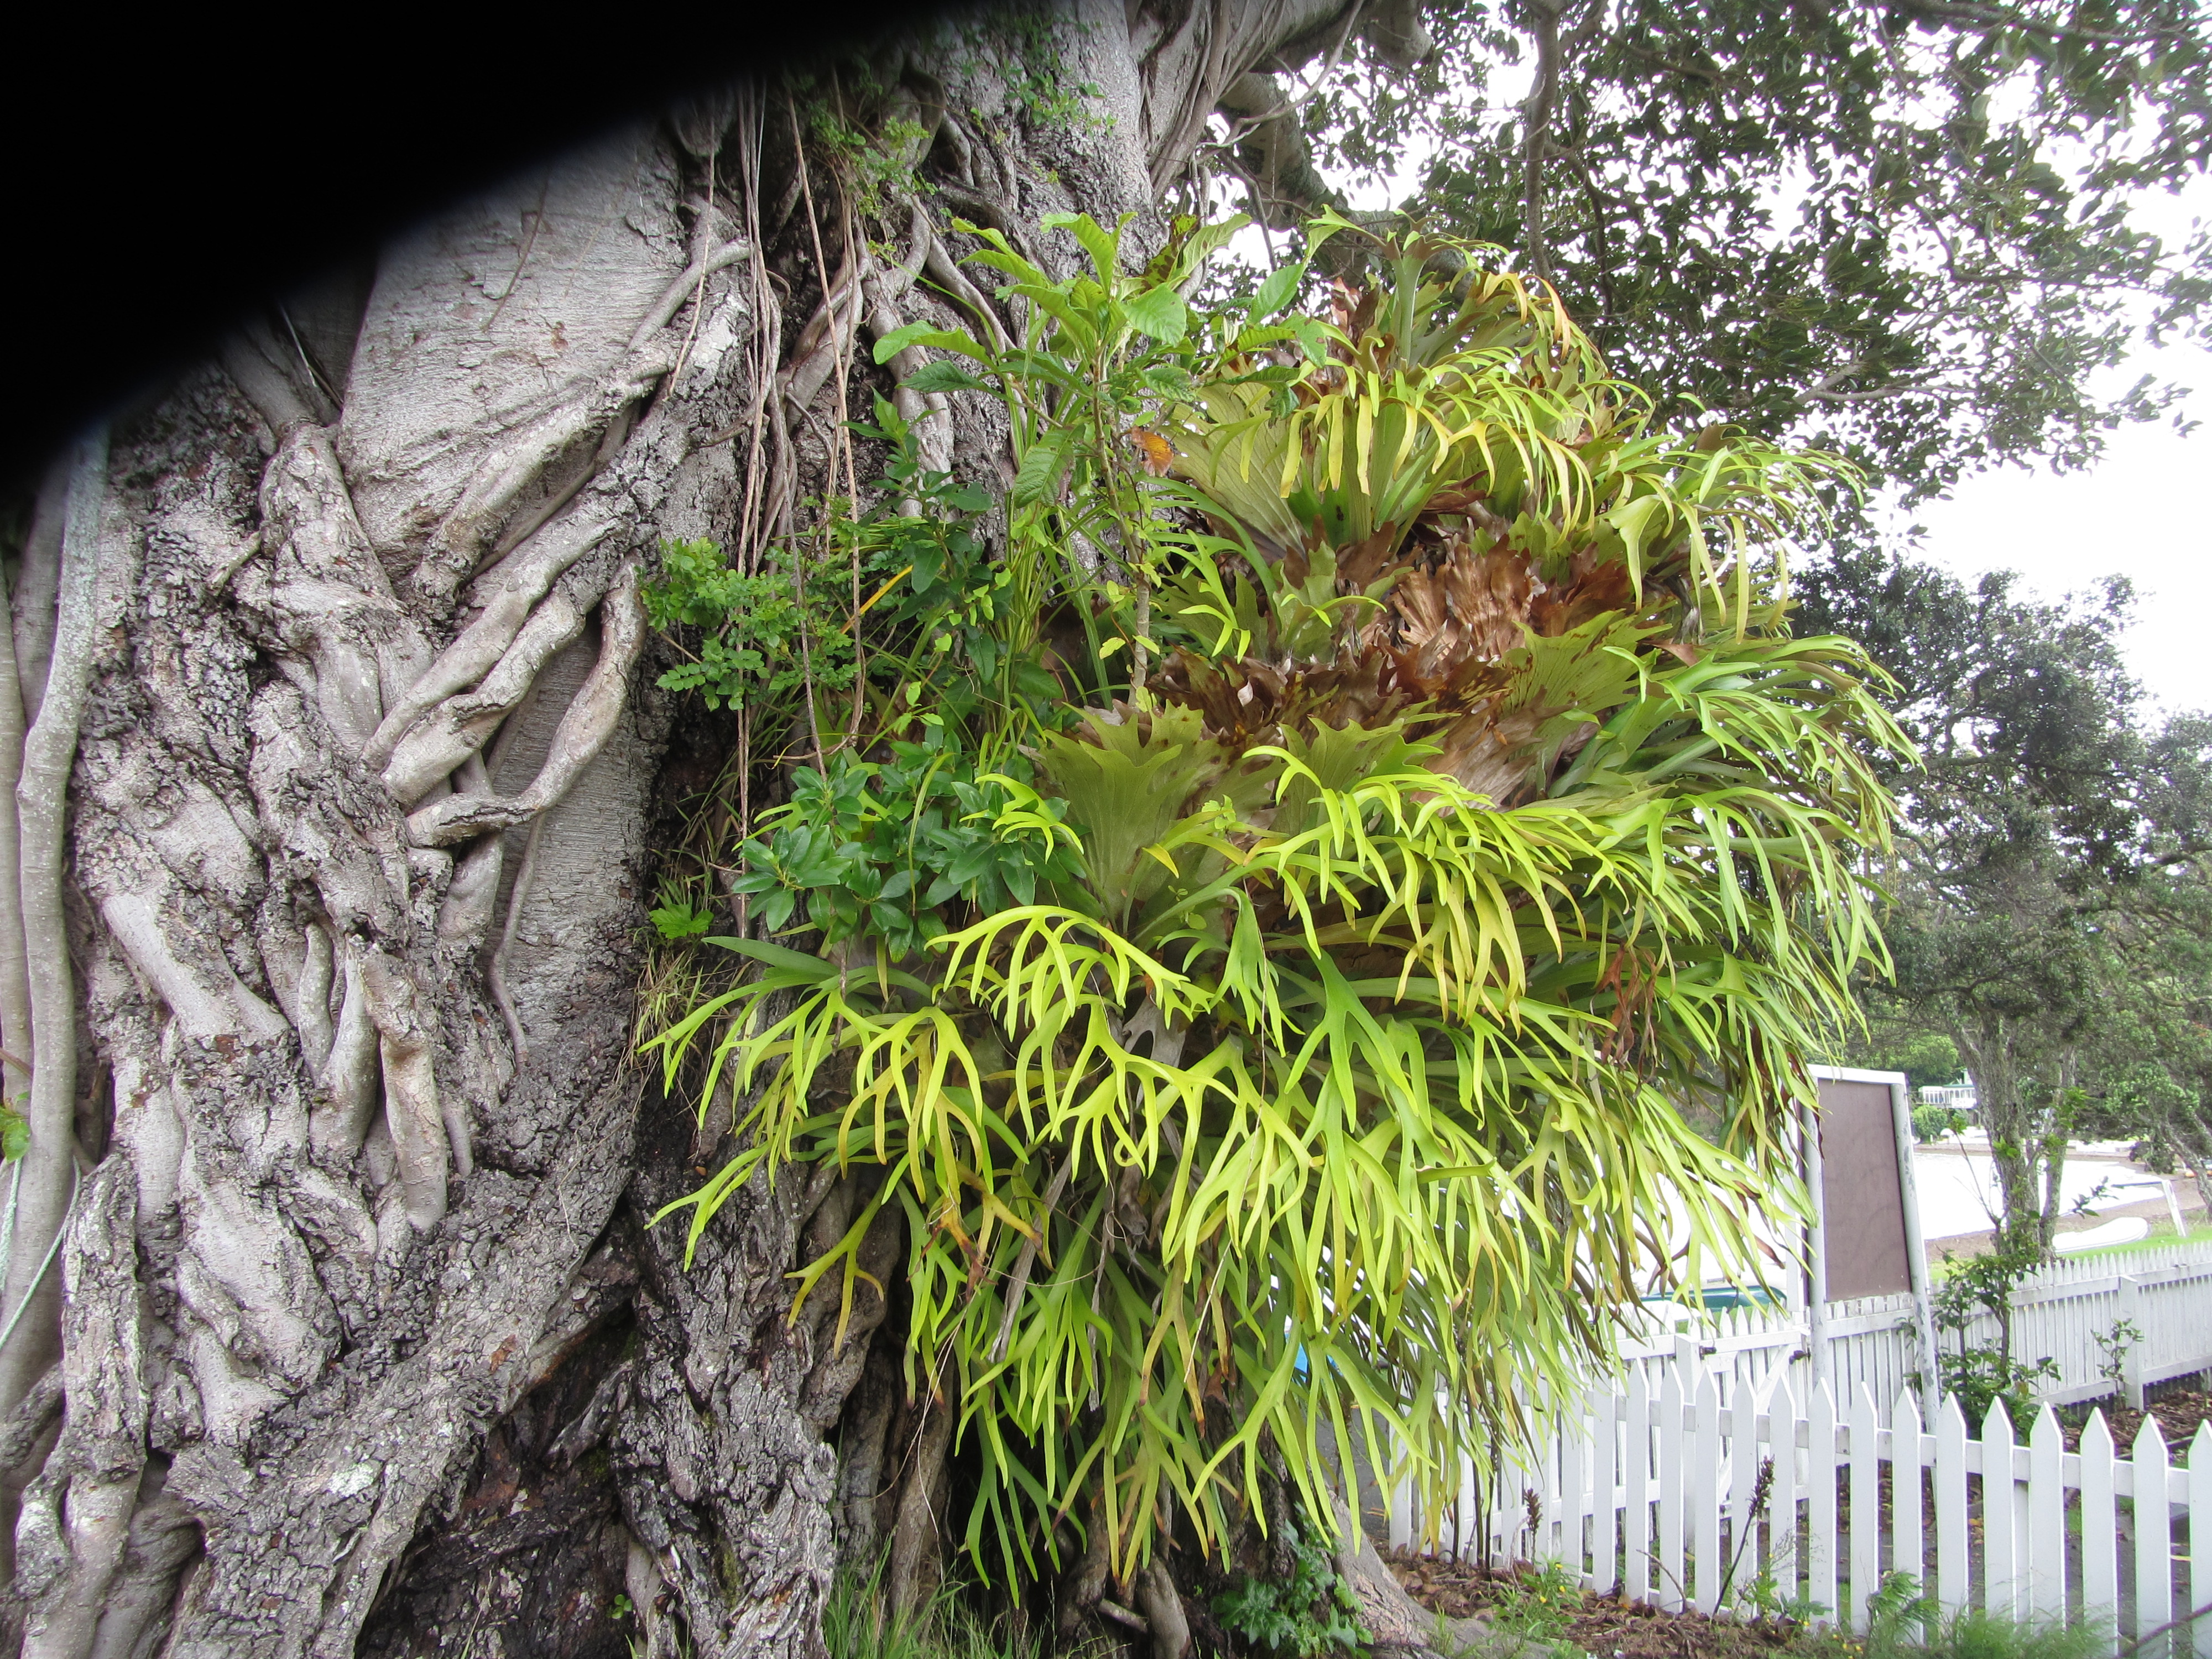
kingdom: Plantae
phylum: Tracheophyta
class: Polypodiopsida
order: Polypodiales
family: Polypodiaceae
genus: Platycerium
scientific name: Platycerium bifurcatum
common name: Elkhorn fern
